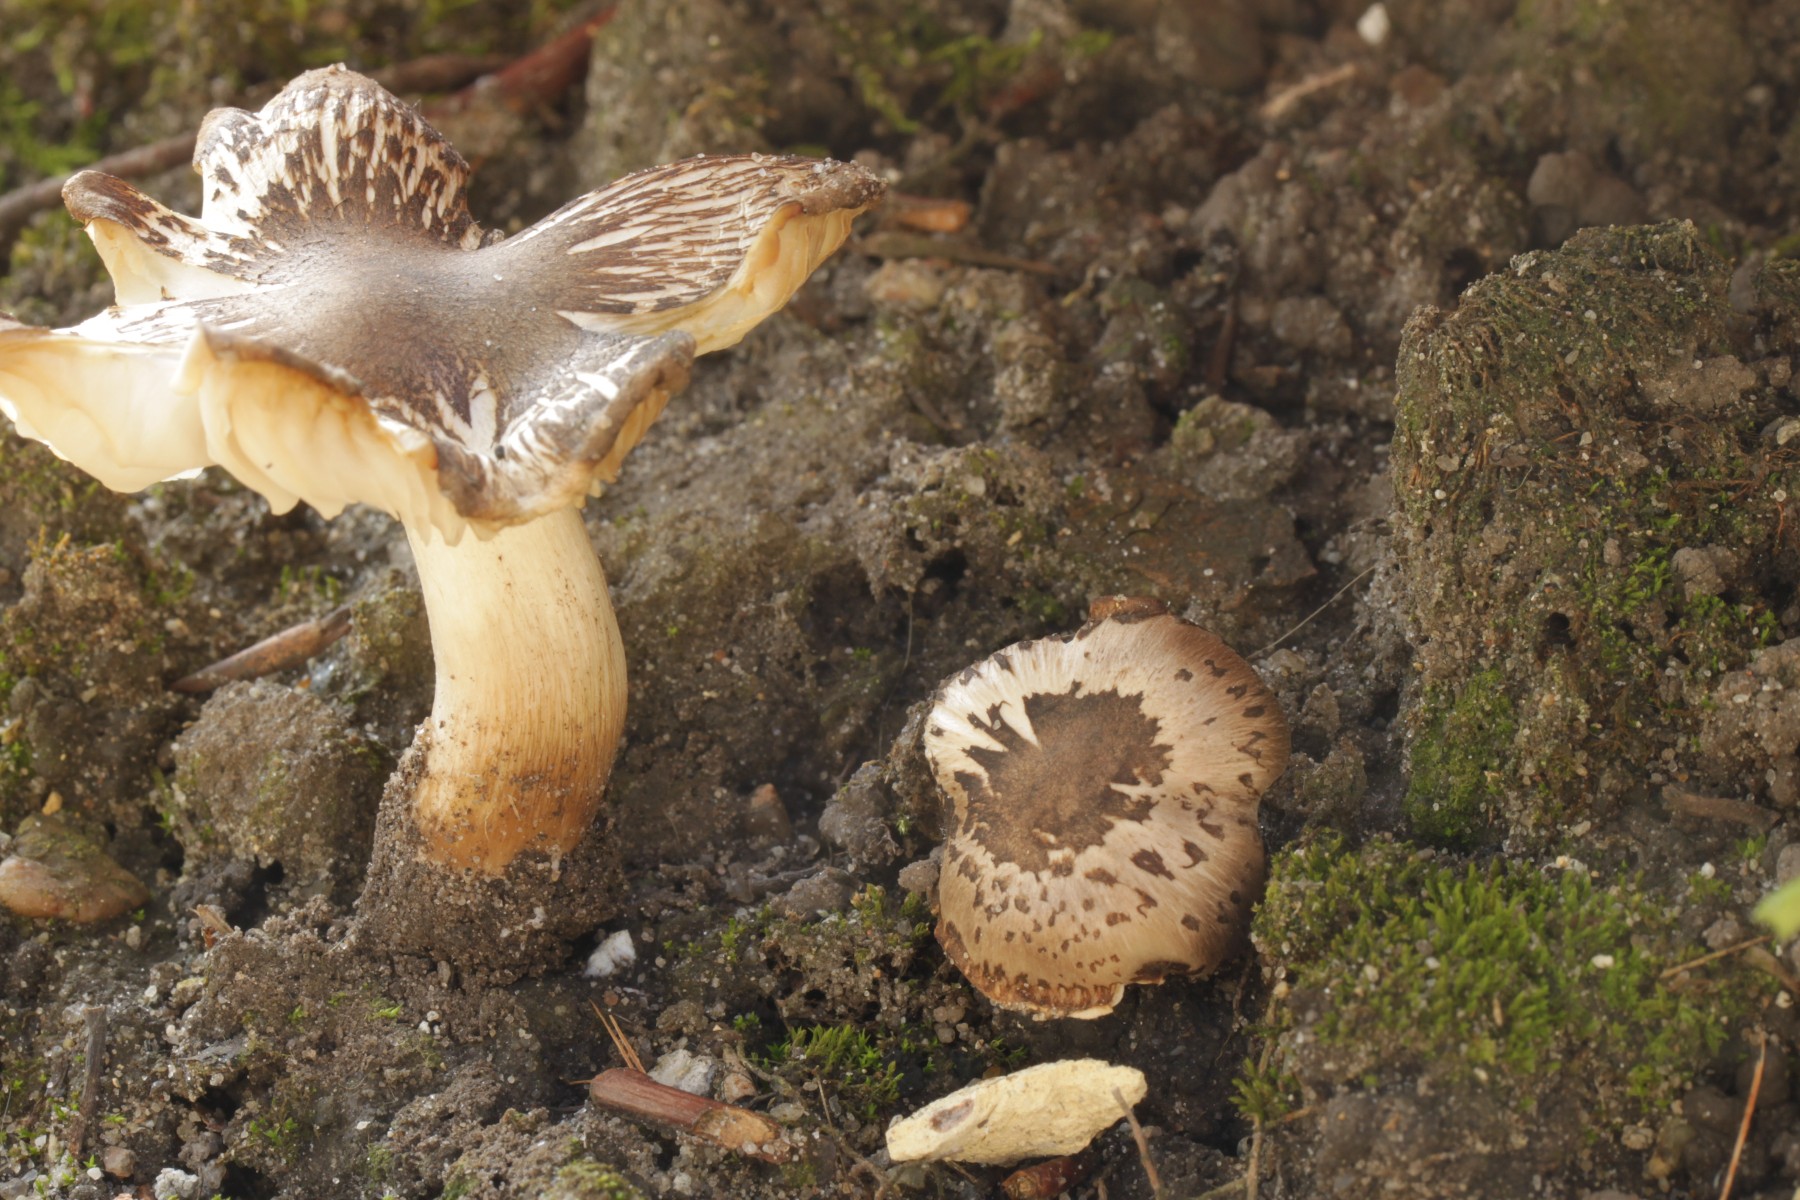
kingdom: Fungi
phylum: Basidiomycota
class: Agaricomycetes
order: Agaricales
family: Tricholomataceae
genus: Tricholoma
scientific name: Tricholoma
